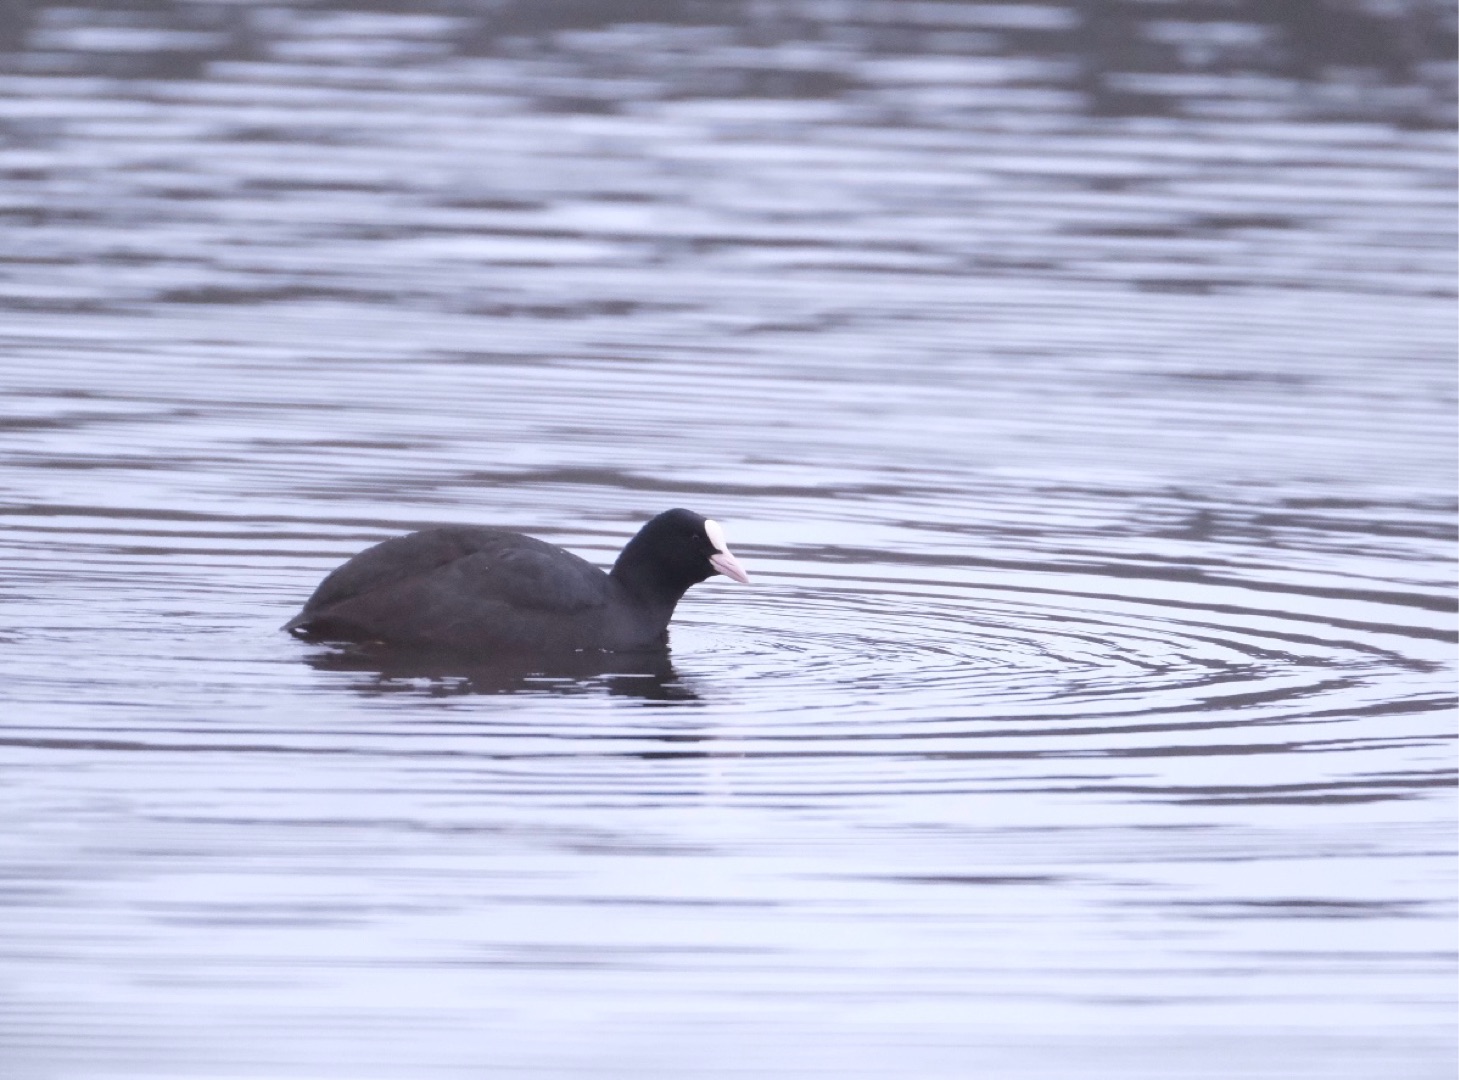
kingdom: Animalia
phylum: Chordata
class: Aves
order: Gruiformes
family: Rallidae
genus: Fulica
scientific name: Fulica atra
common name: Blishøne
